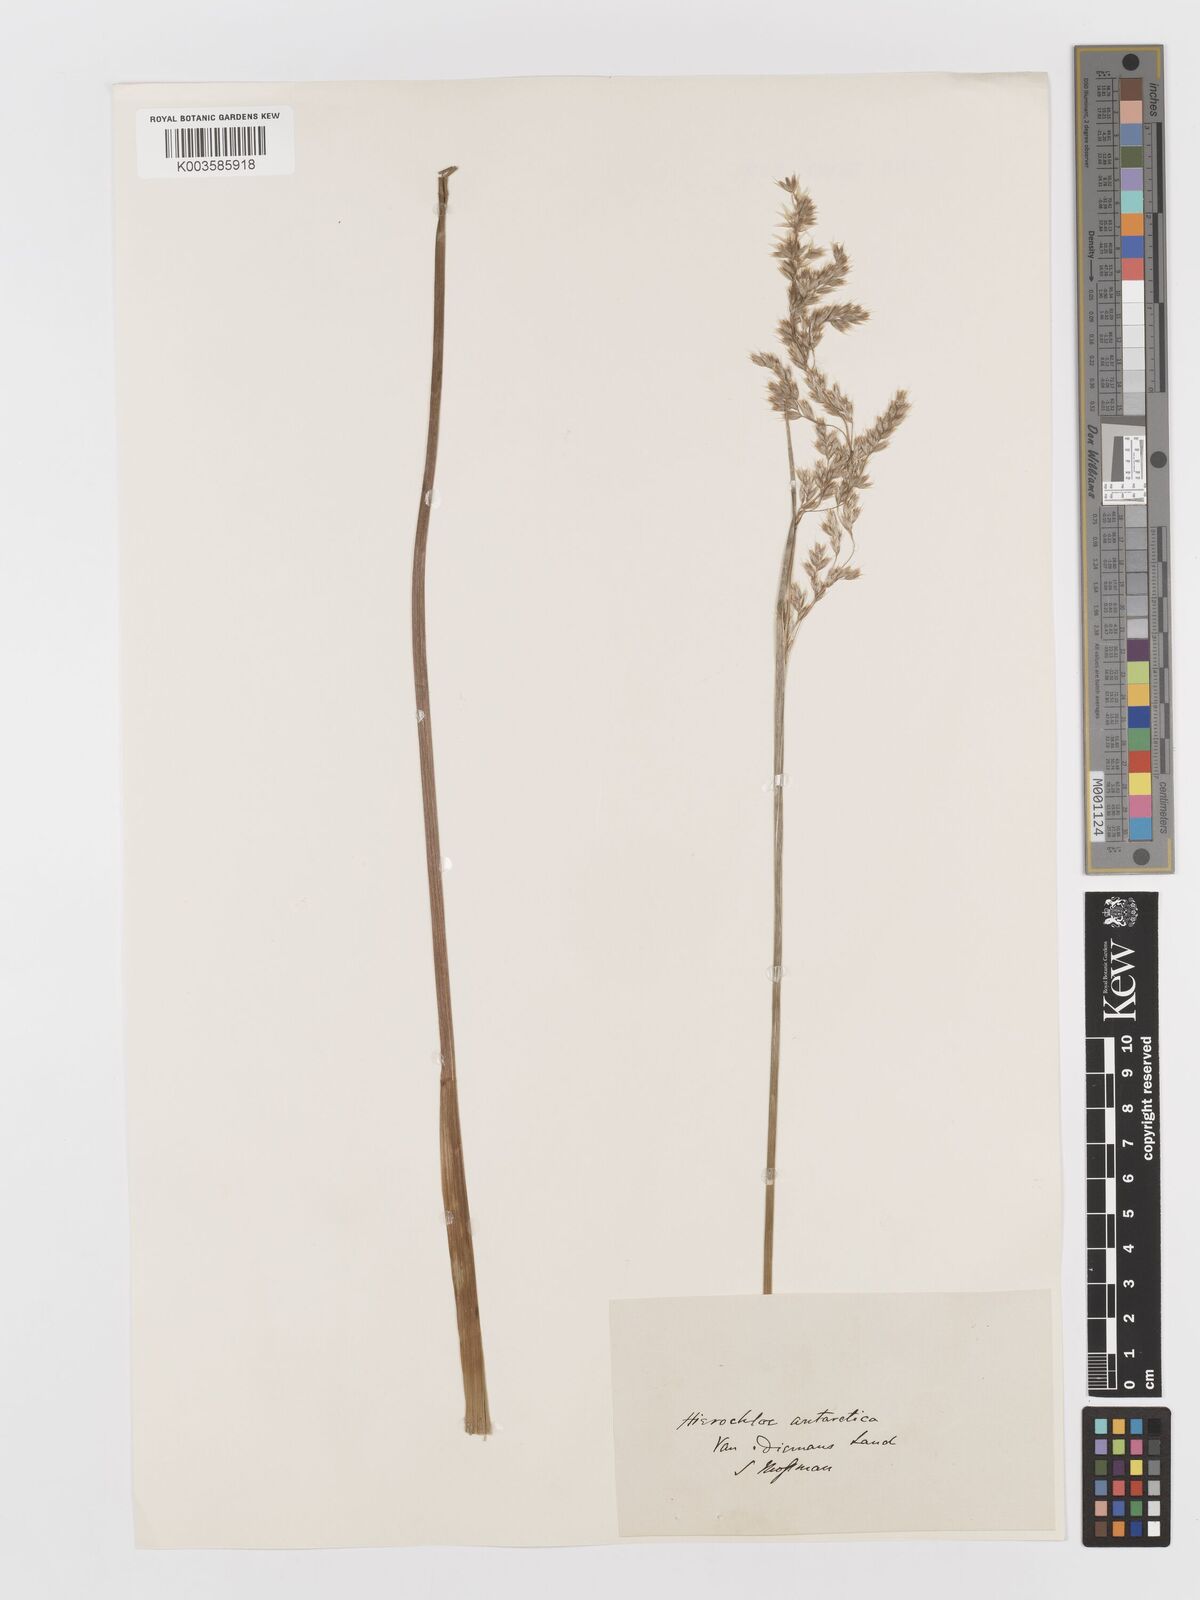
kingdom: Plantae
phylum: Tracheophyta
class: Liliopsida
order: Poales
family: Poaceae
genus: Anthoxanthum
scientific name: Anthoxanthum redolens
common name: Sweet holy grass
